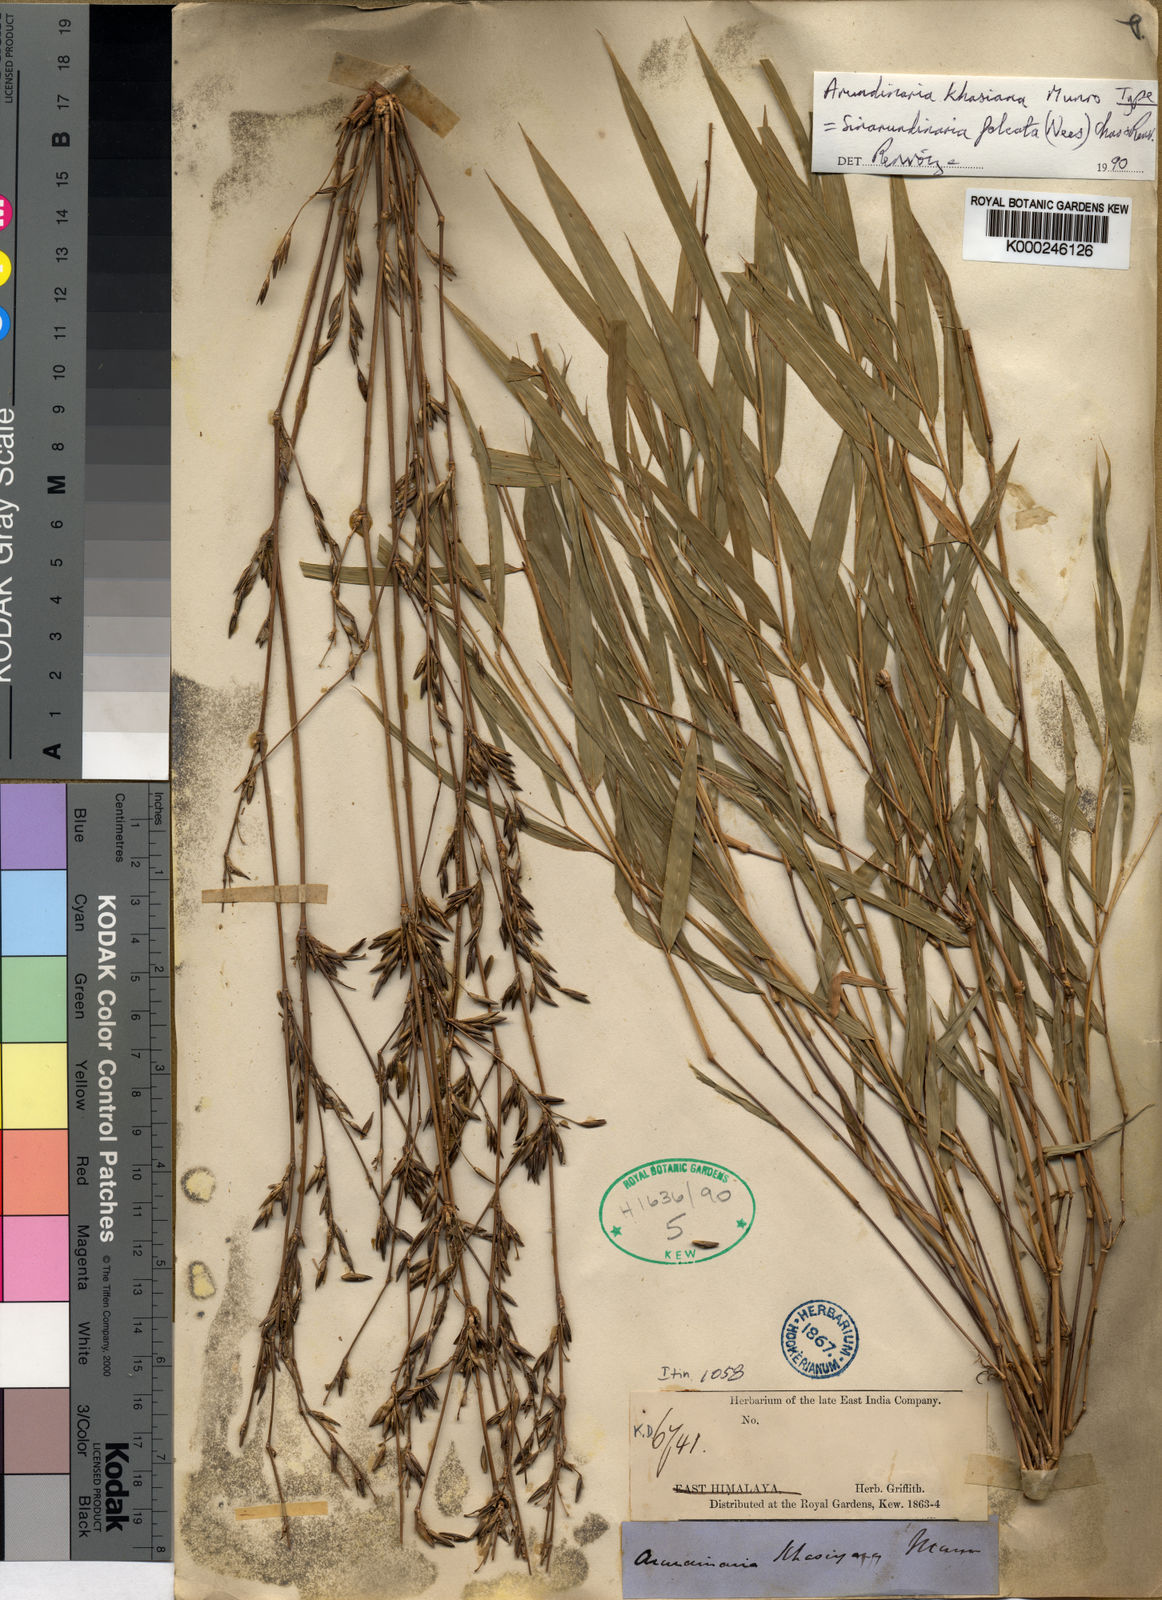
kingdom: Plantae
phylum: Tracheophyta
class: Liliopsida
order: Poales
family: Poaceae
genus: Drepanostachyum
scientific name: Drepanostachyum khasianum
